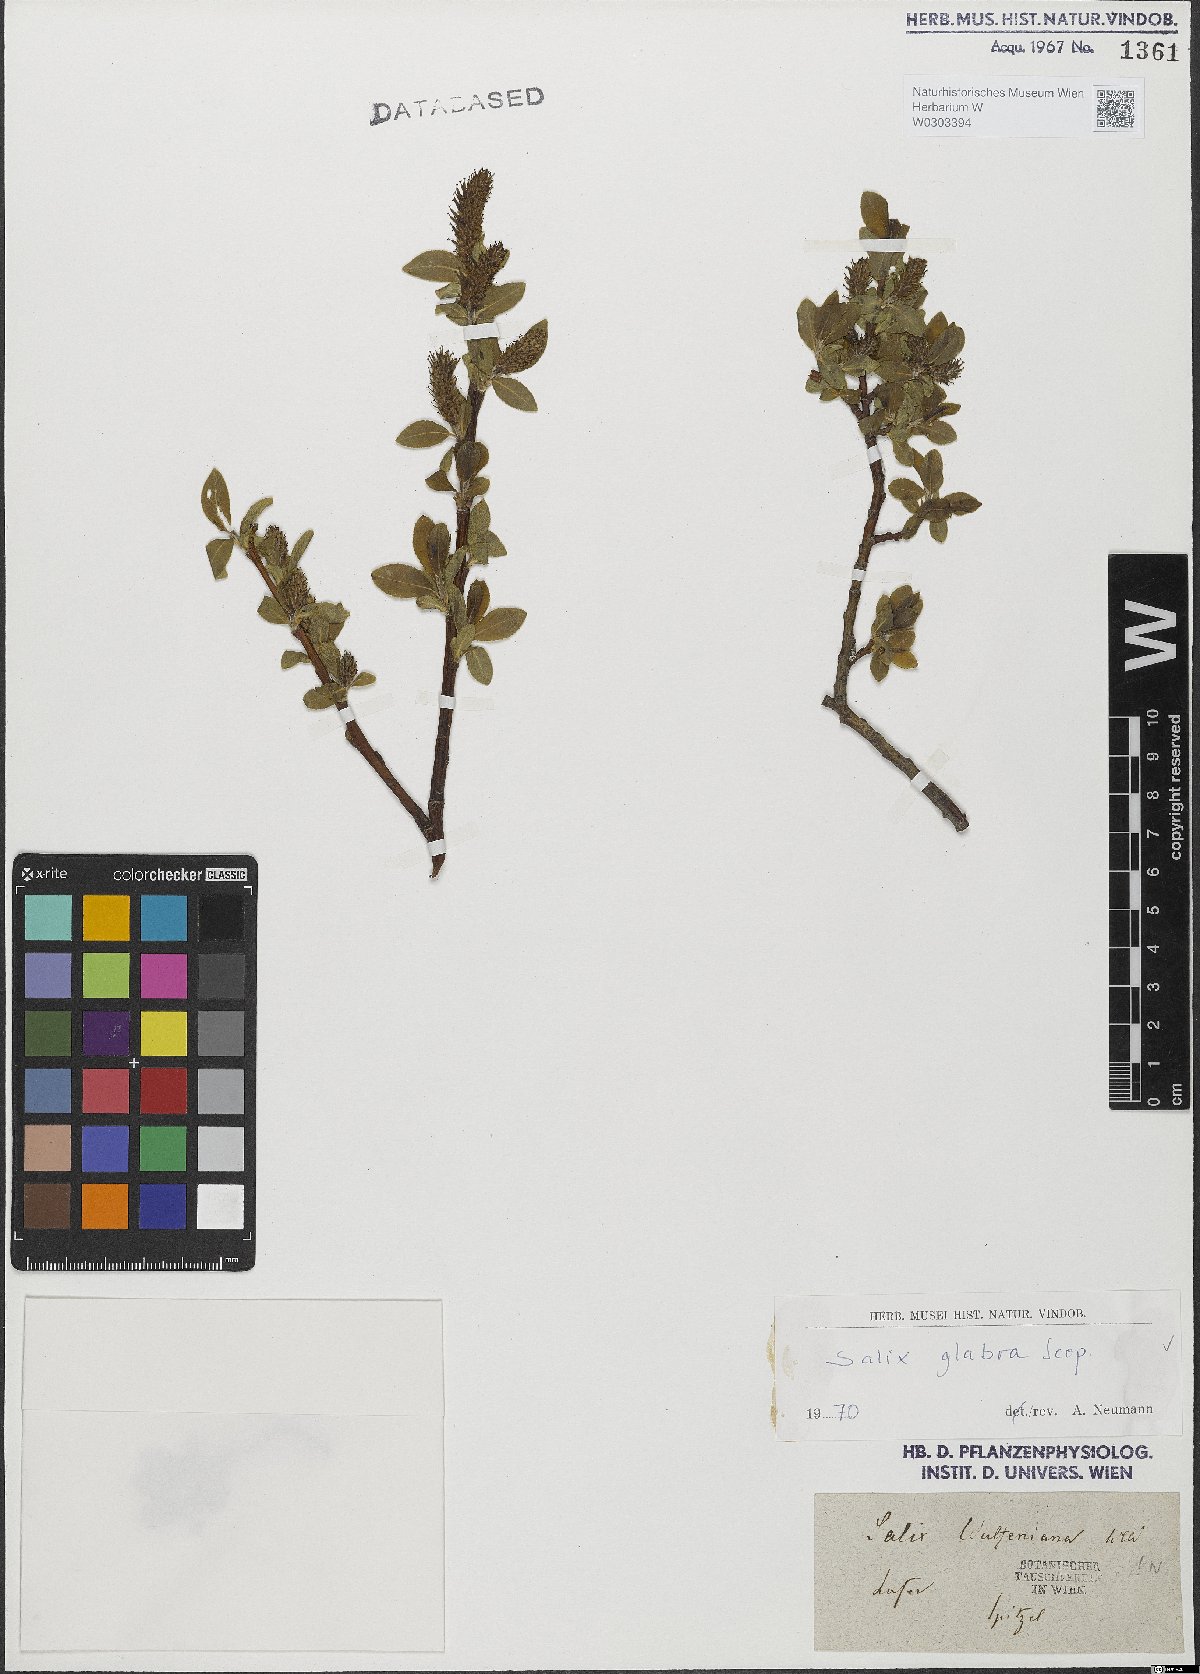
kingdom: Plantae
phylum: Tracheophyta
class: Magnoliopsida
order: Malpighiales
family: Salicaceae
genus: Salix
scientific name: Salix glabra
